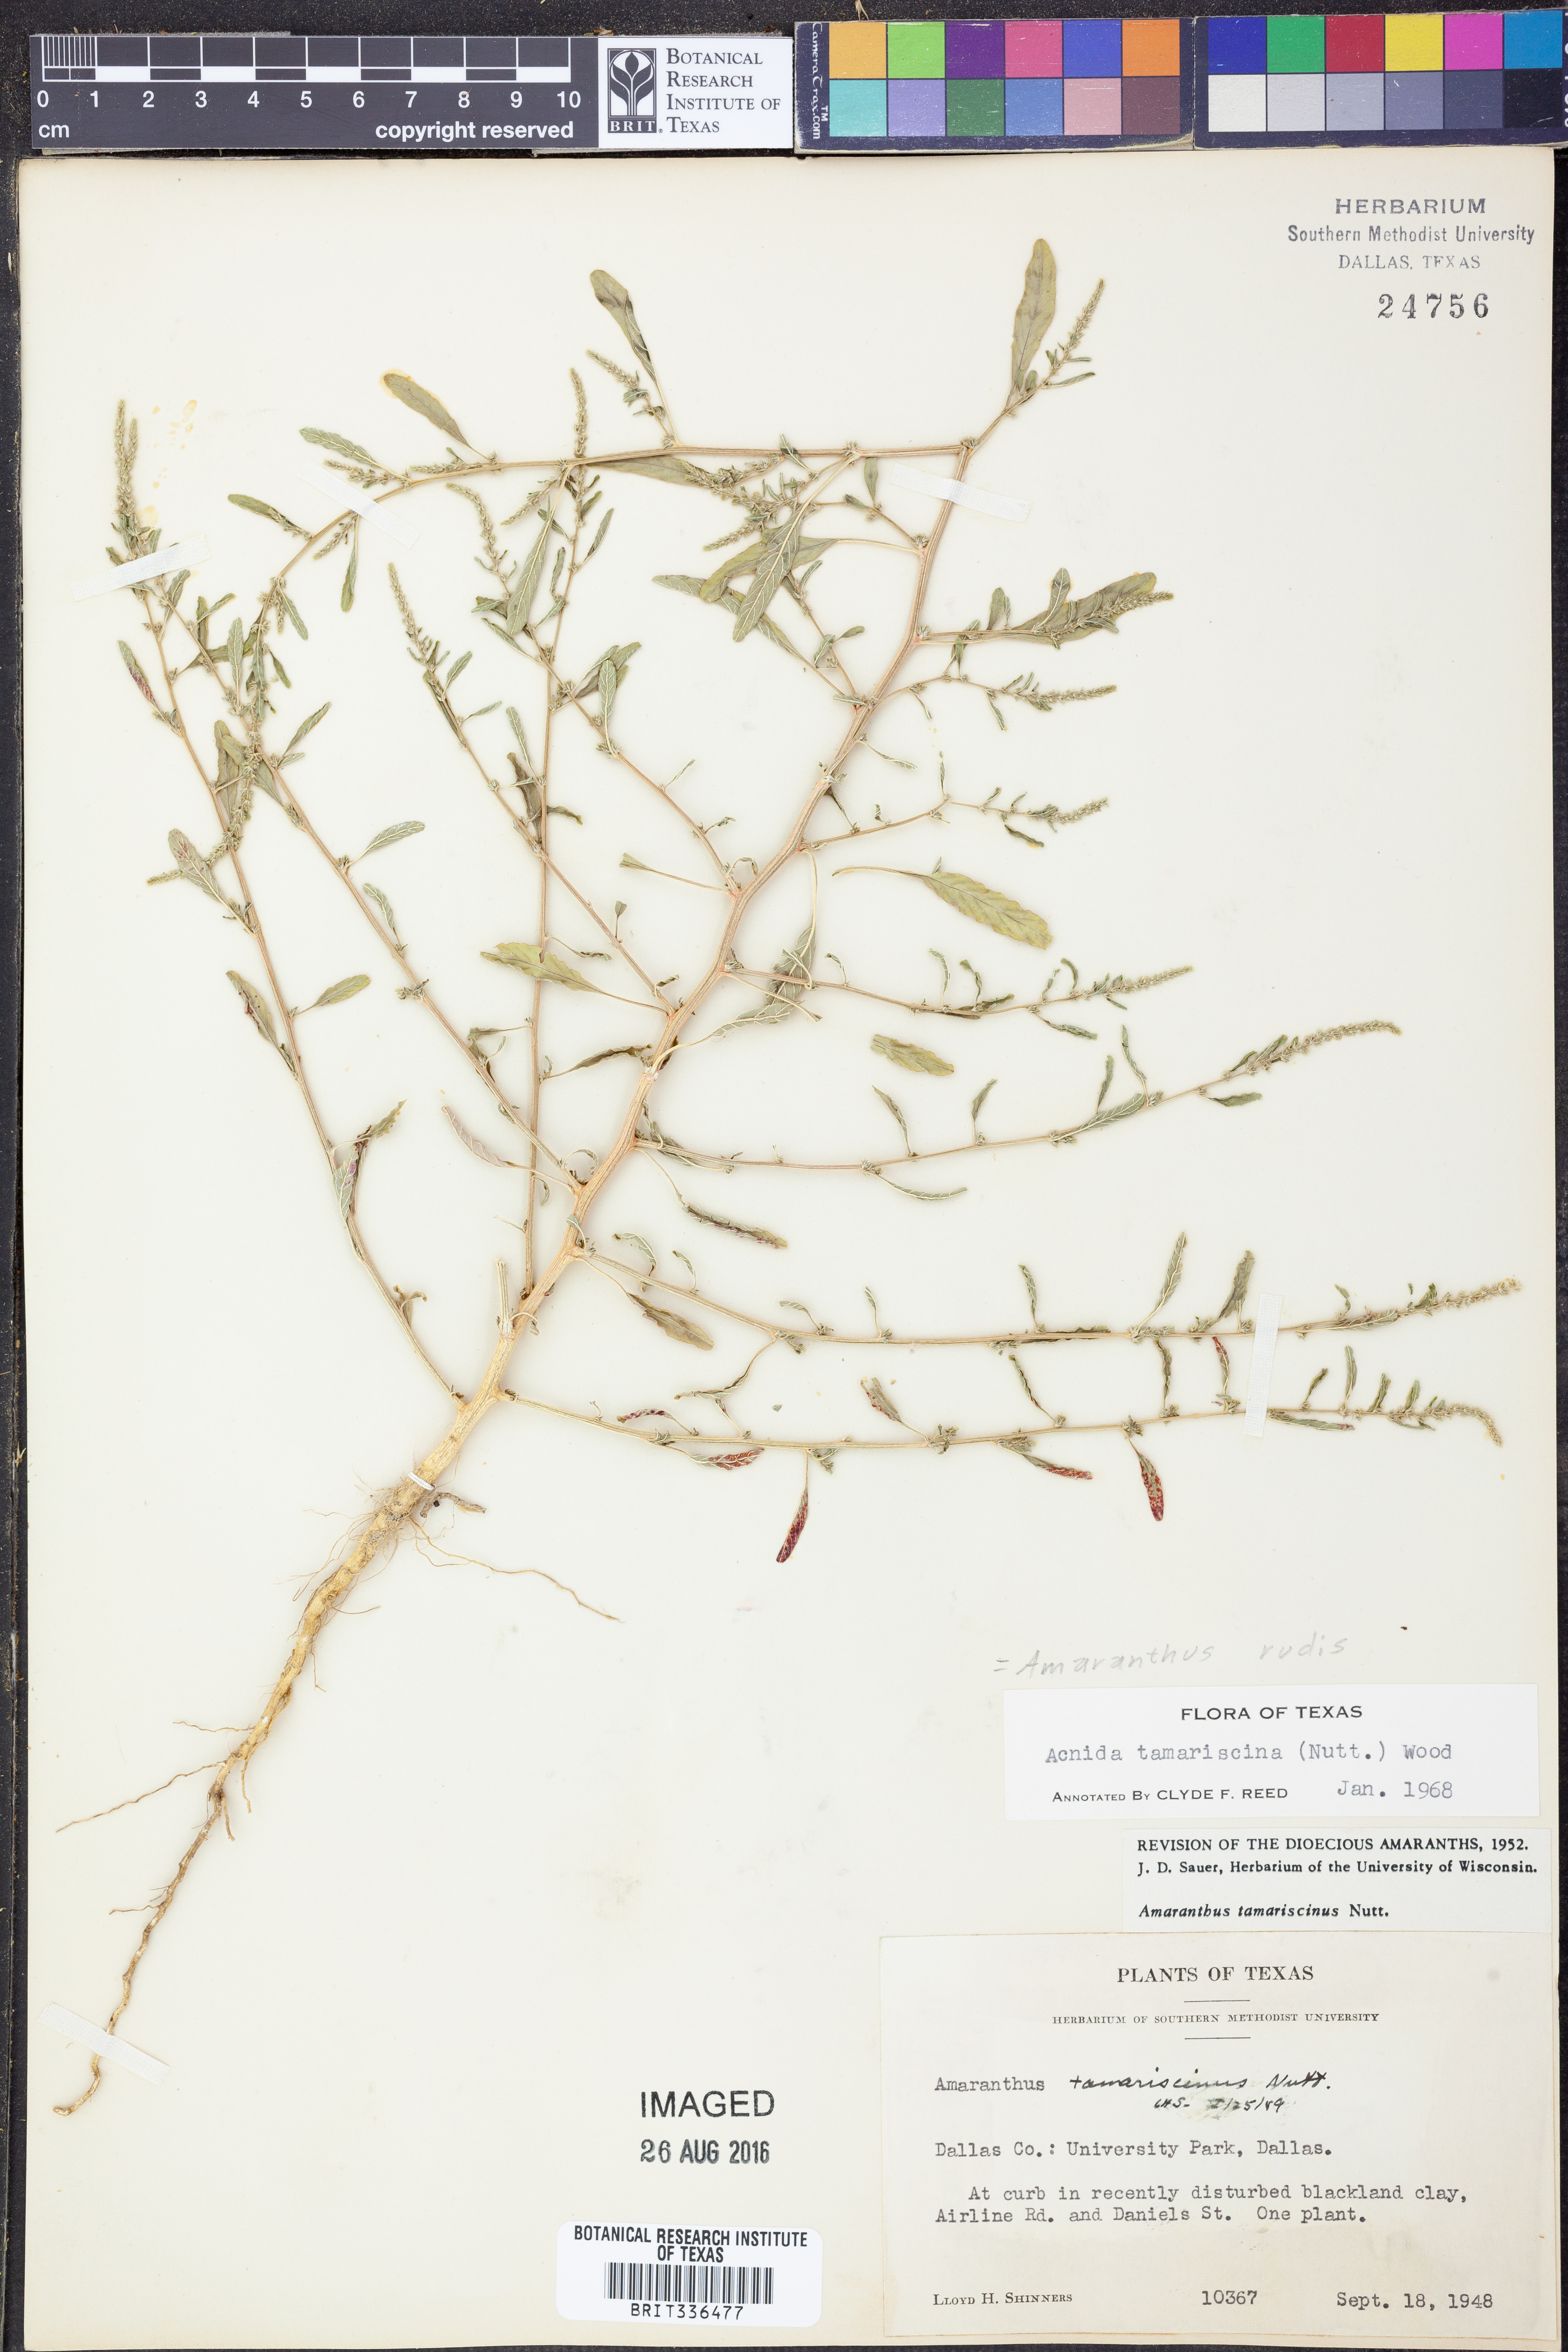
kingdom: Plantae
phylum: Tracheophyta
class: Magnoliopsida
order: Caryophyllales
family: Amaranthaceae
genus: Amaranthus
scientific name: Amaranthus tuberculatus
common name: Rough-fruit amaranth
